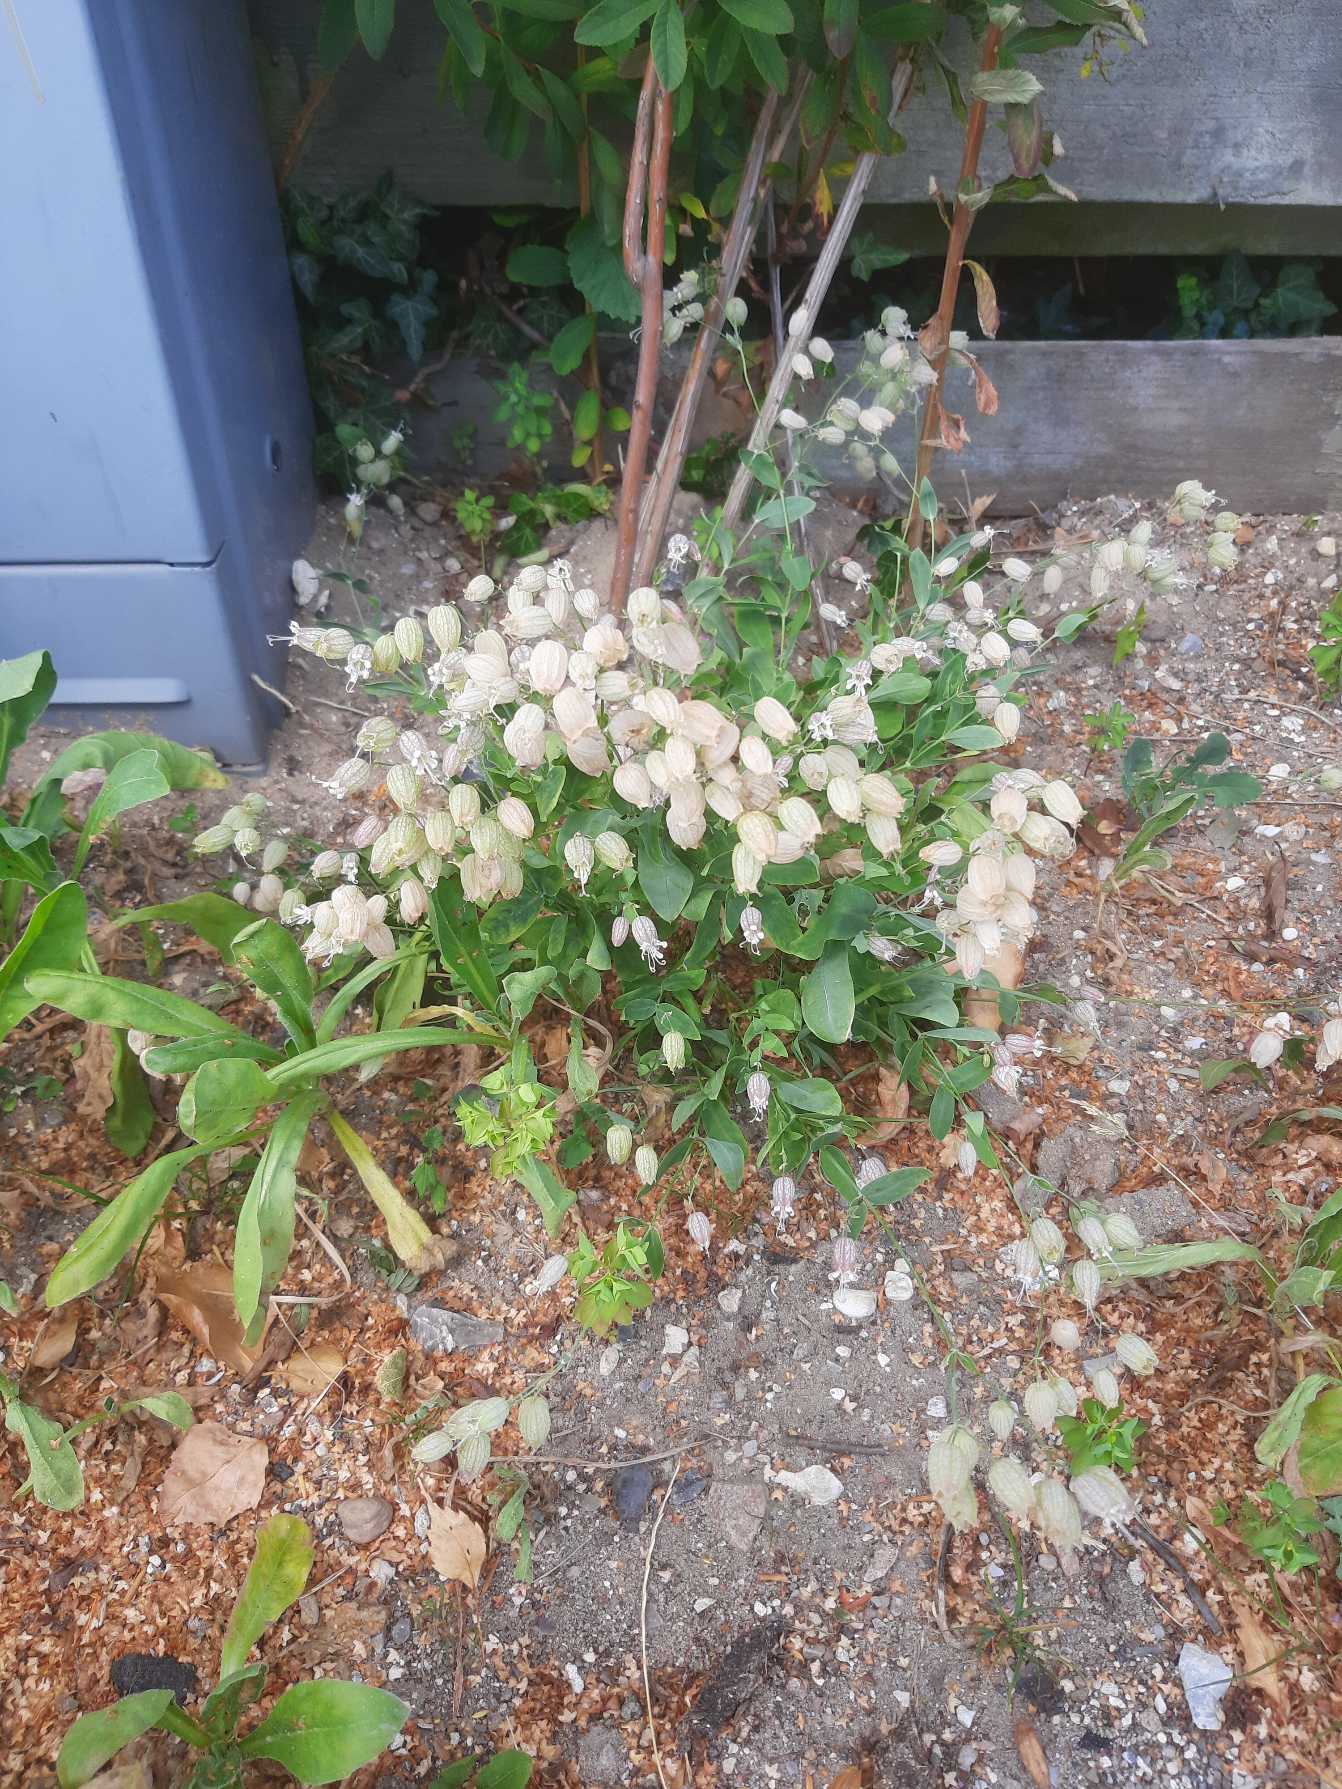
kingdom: Plantae
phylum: Tracheophyta
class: Magnoliopsida
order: Caryophyllales
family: Caryophyllaceae
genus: Silene
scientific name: Silene vulgaris
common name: Blæresmælde
